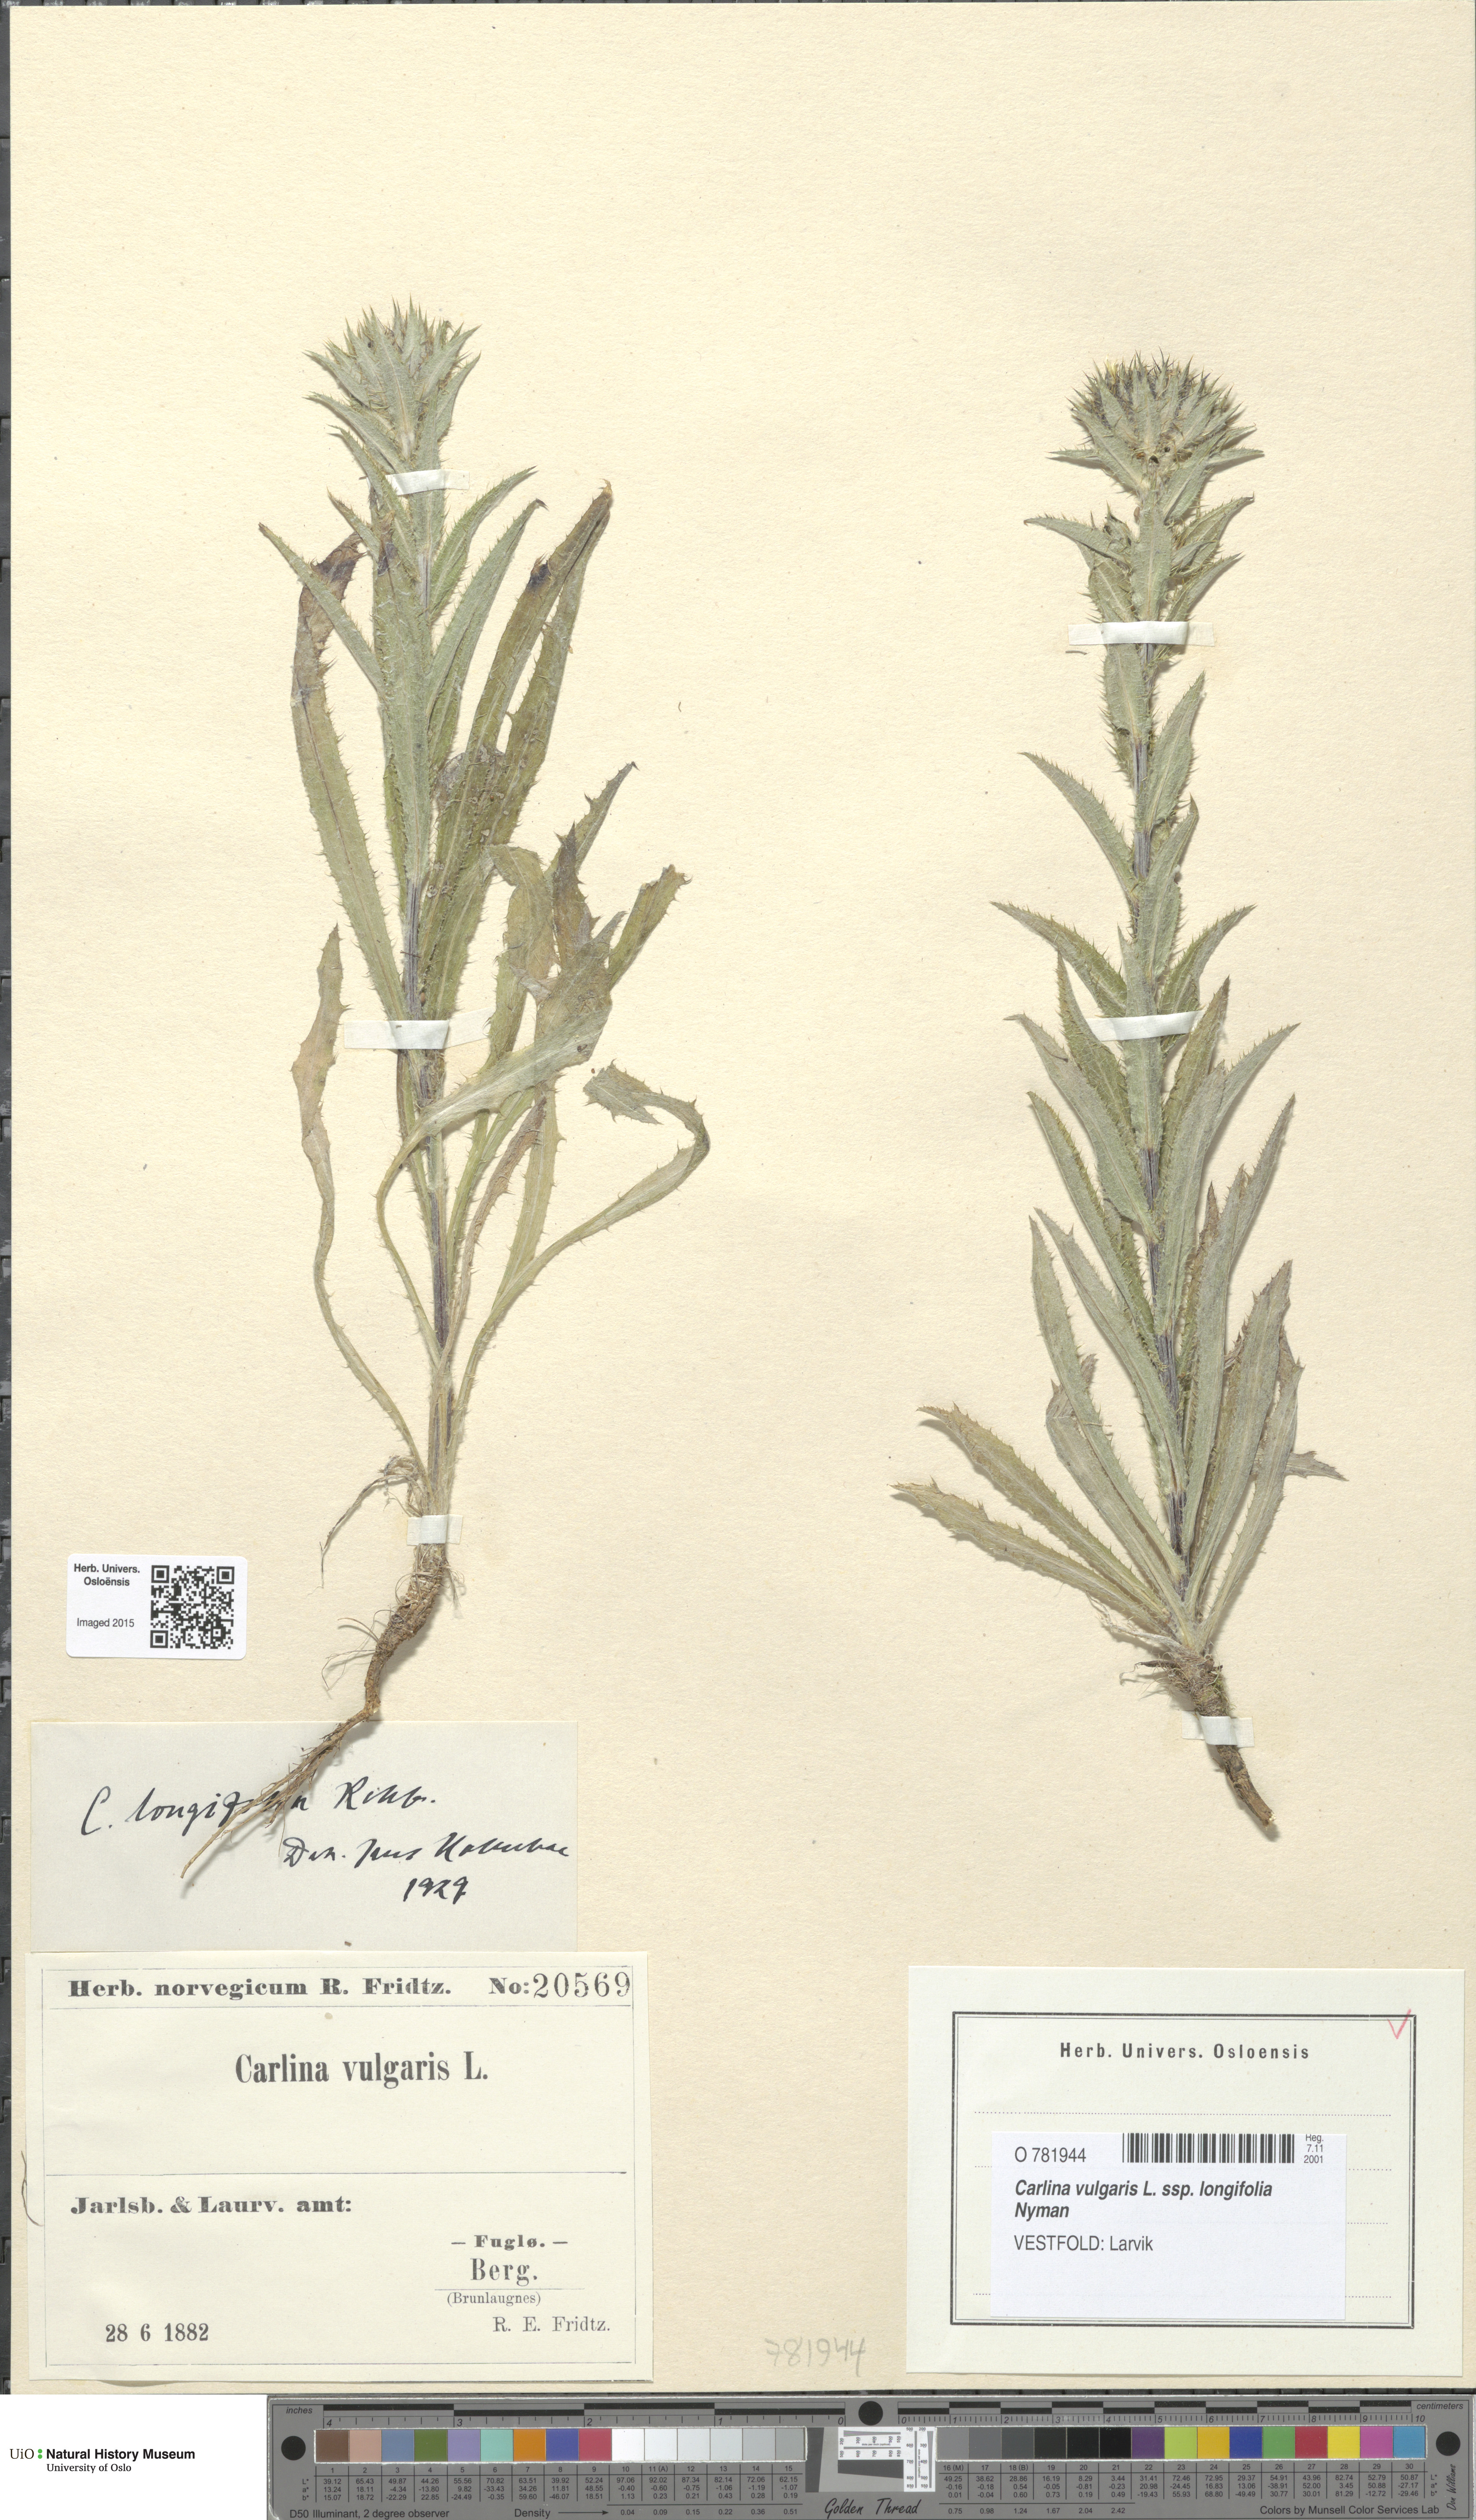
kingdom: Plantae
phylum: Tracheophyta
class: Magnoliopsida
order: Asterales
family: Asteraceae
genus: Carlina
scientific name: Carlina biebersteinii
